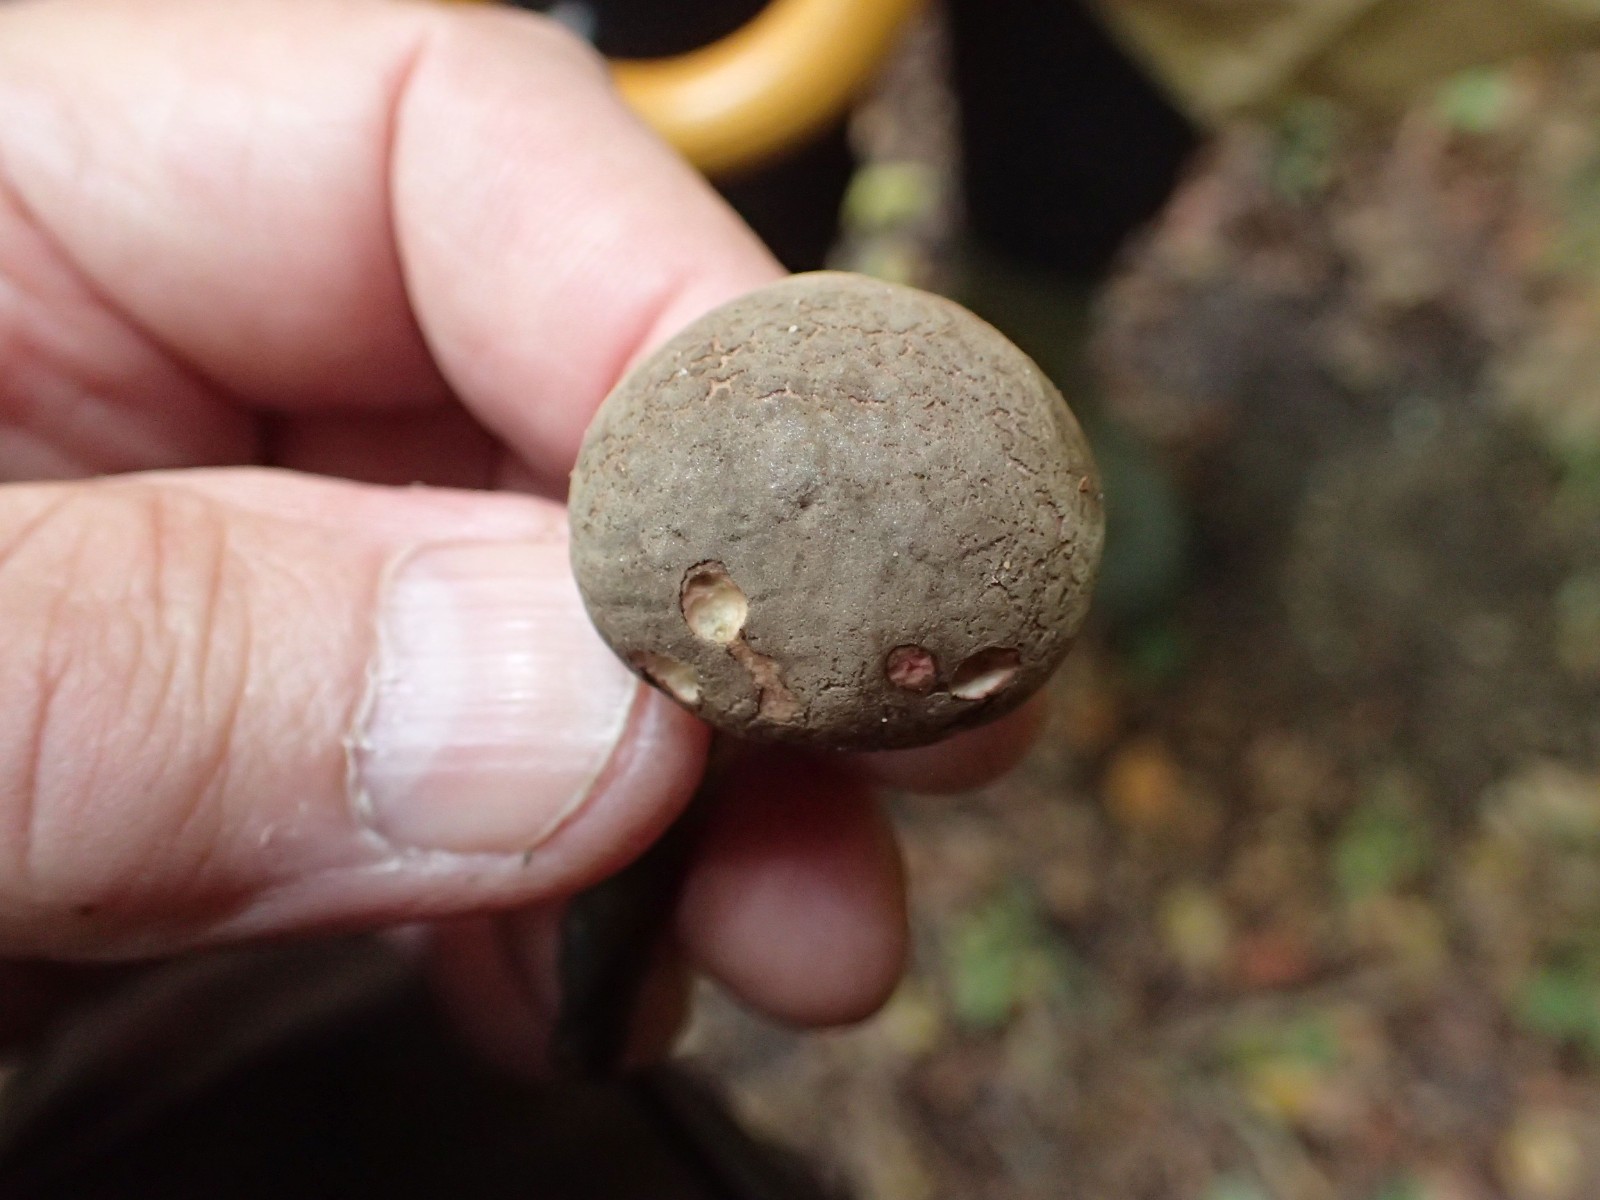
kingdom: Fungi
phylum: Basidiomycota
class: Agaricomycetes
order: Boletales
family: Boletaceae
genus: Xerocomellus
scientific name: Xerocomellus
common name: dværgrørhat
